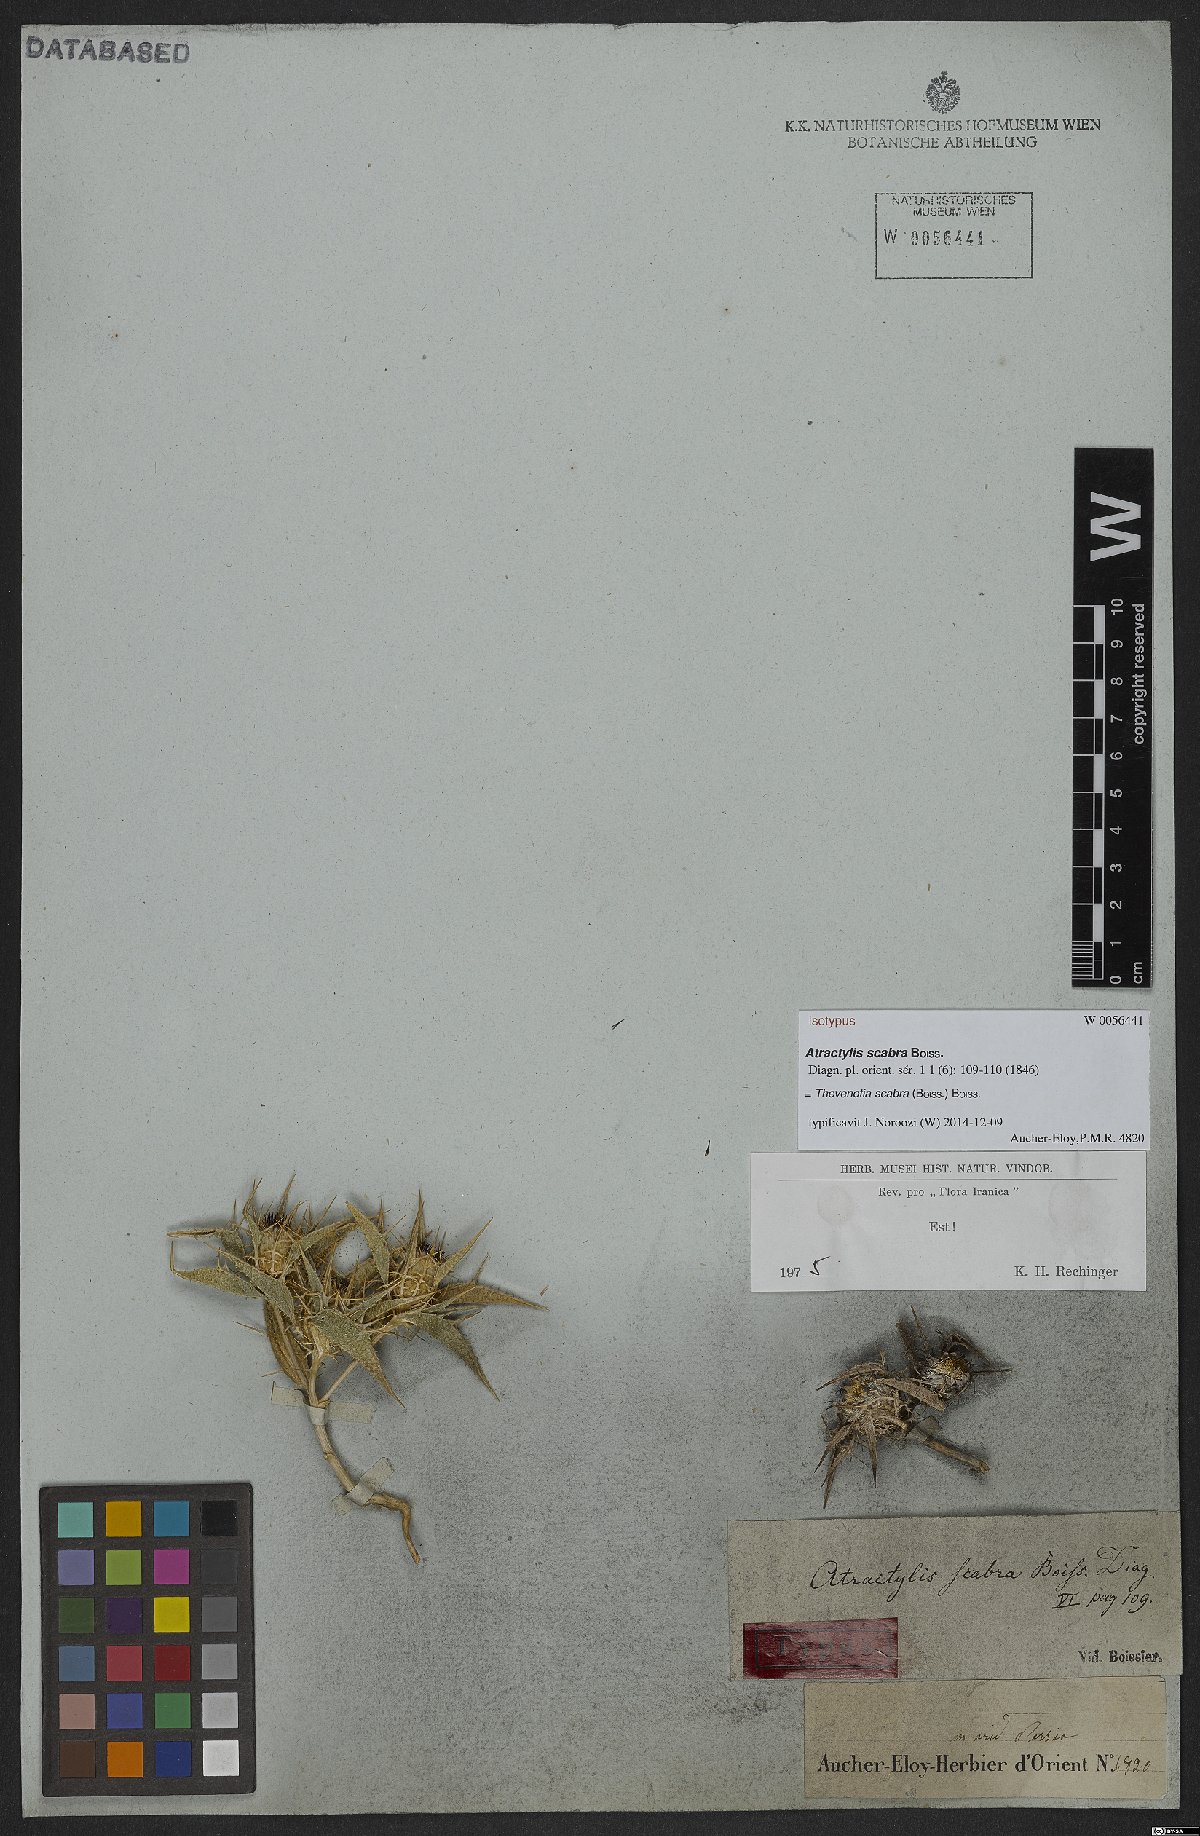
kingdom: Plantae
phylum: Tracheophyta
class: Magnoliopsida
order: Asterales
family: Asteraceae
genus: Thevenotia
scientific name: Thevenotia scabra
